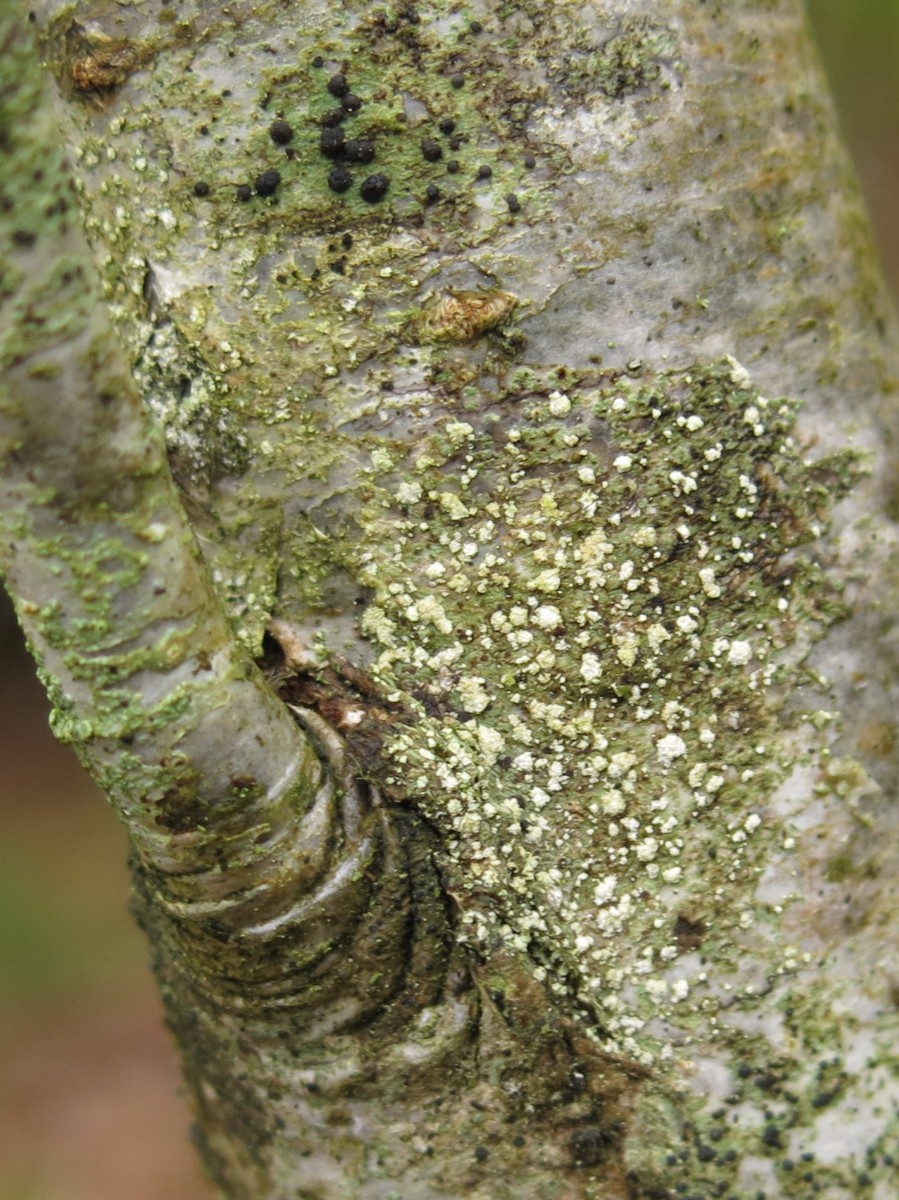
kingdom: Fungi
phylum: Ascomycota
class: Lecanoromycetes
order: Lecanorales
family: Lecanoraceae
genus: Lecidella
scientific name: Lecidella elaeochroma
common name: grågrøn skivelav
